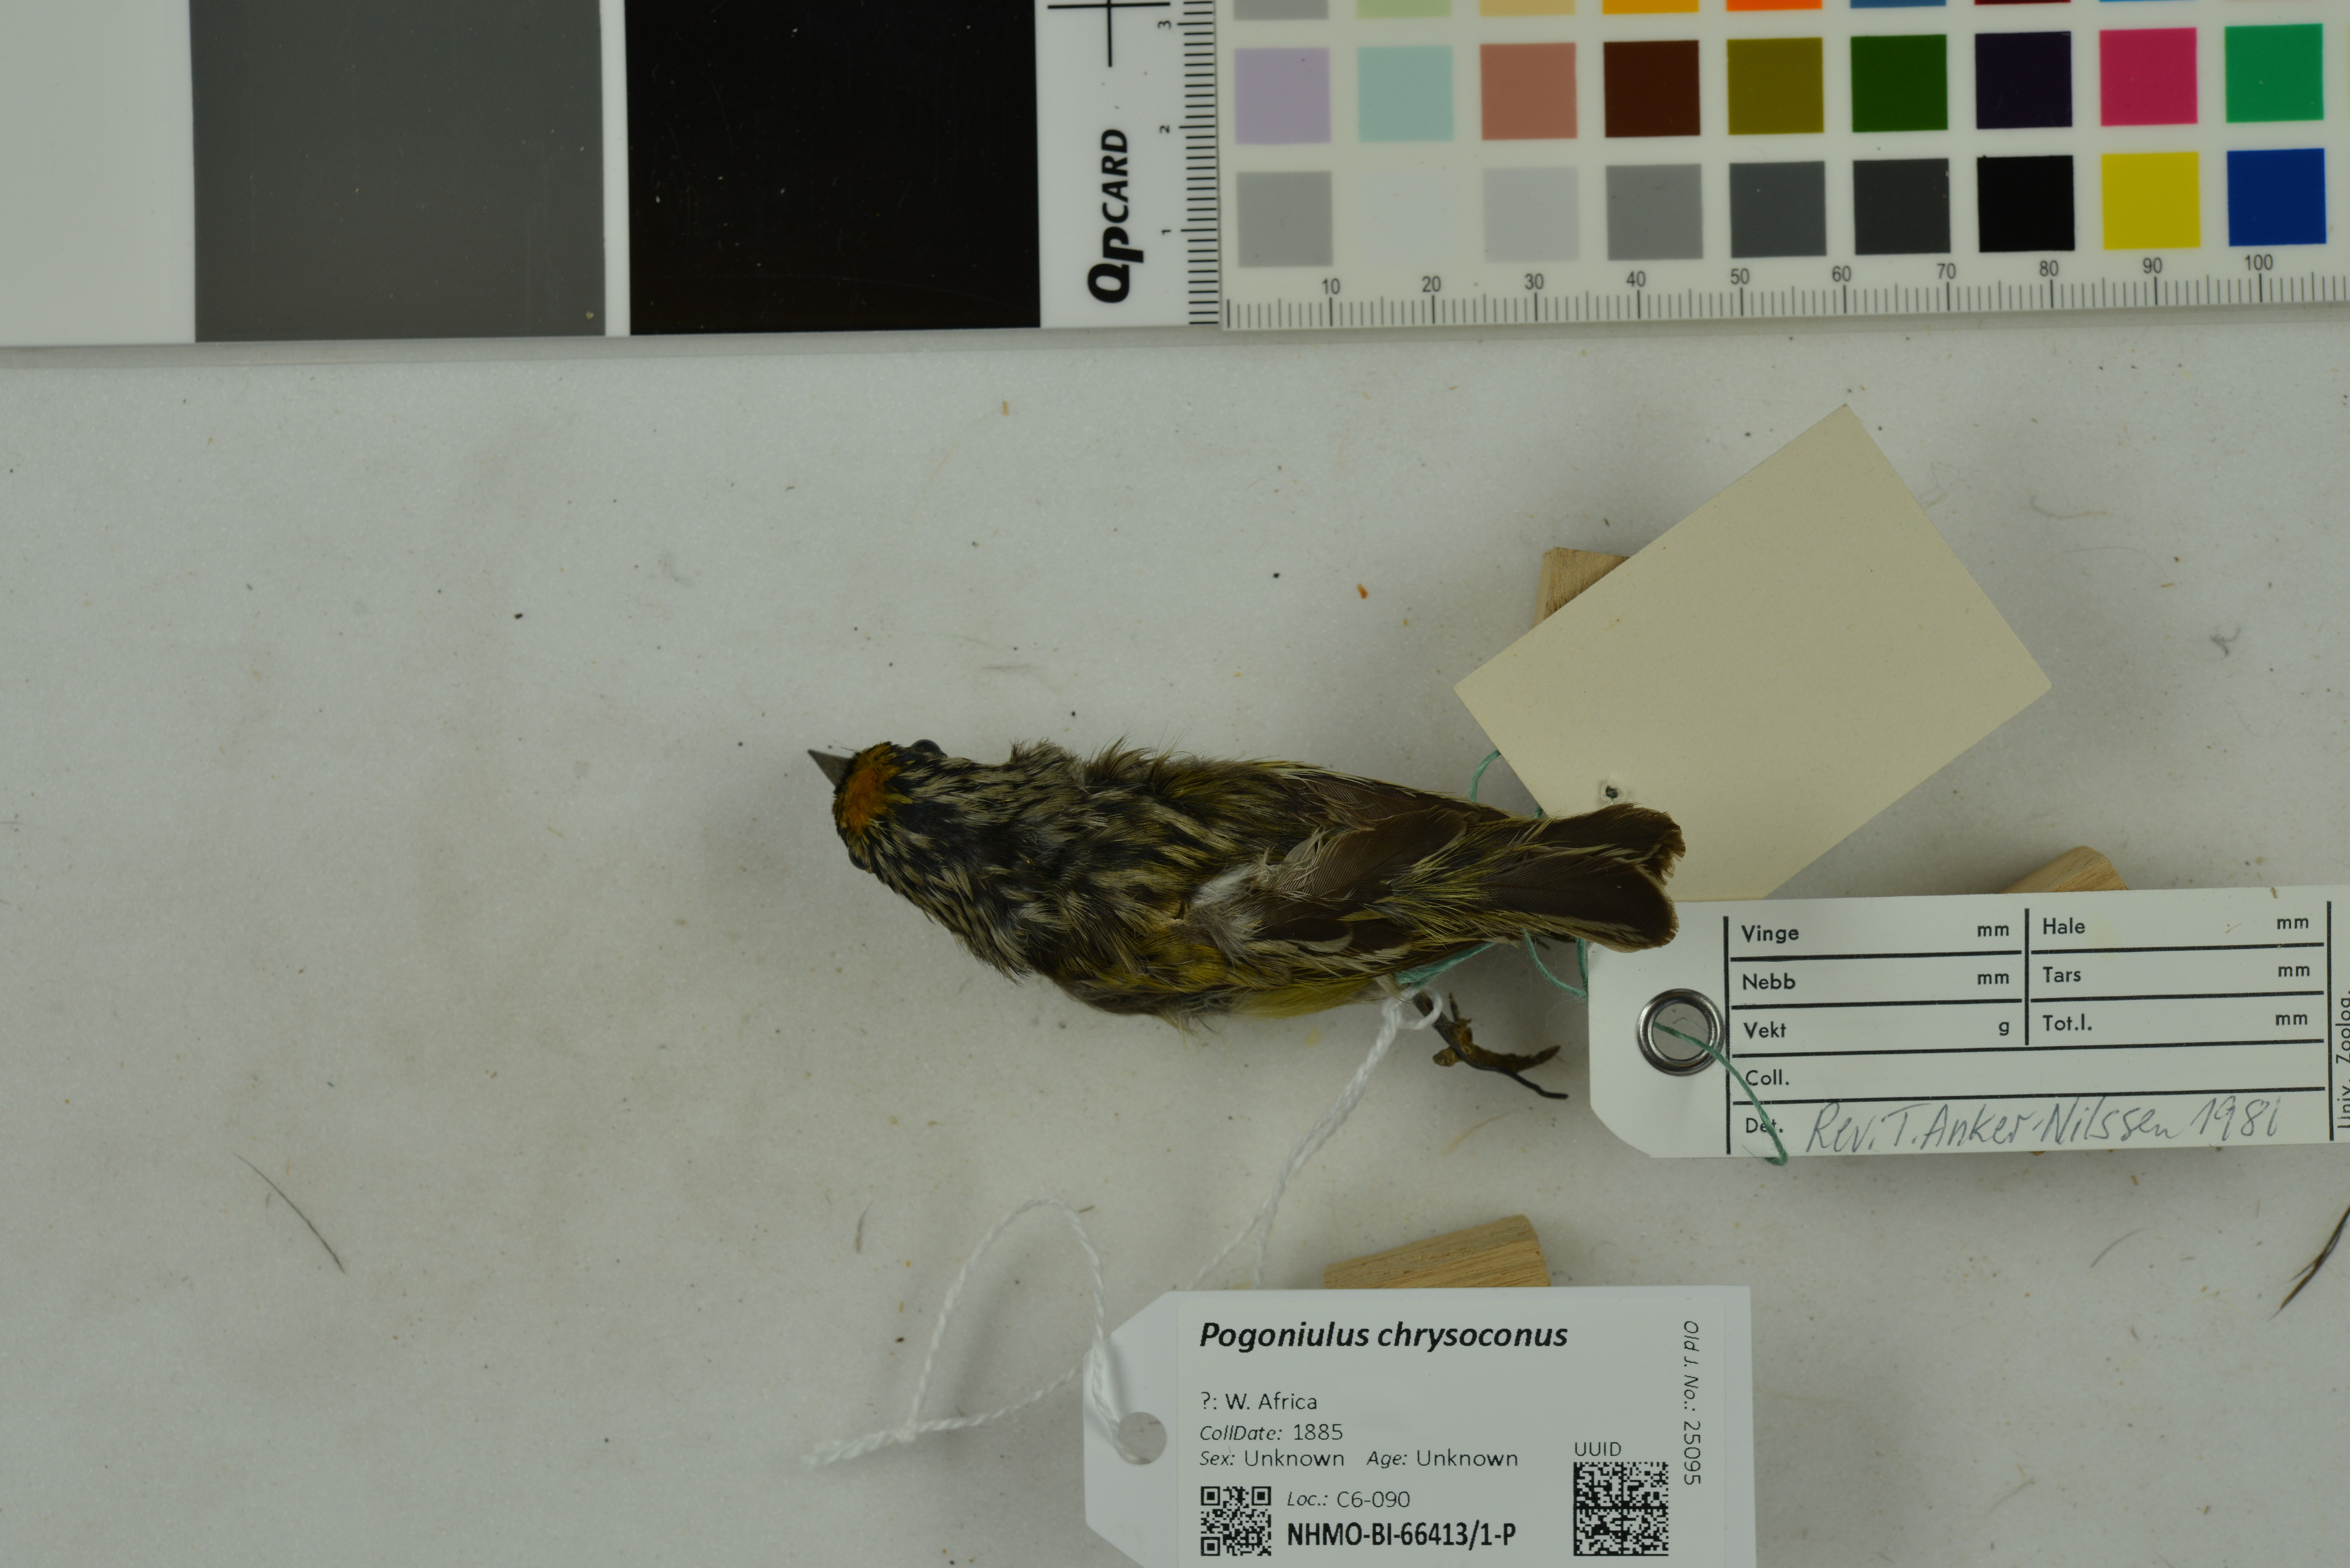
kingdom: Animalia
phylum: Chordata
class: Aves
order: Piciformes
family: Lybiidae
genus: Pogoniulus
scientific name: Pogoniulus chrysoconus
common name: Yellow-fronted tinkerbird
